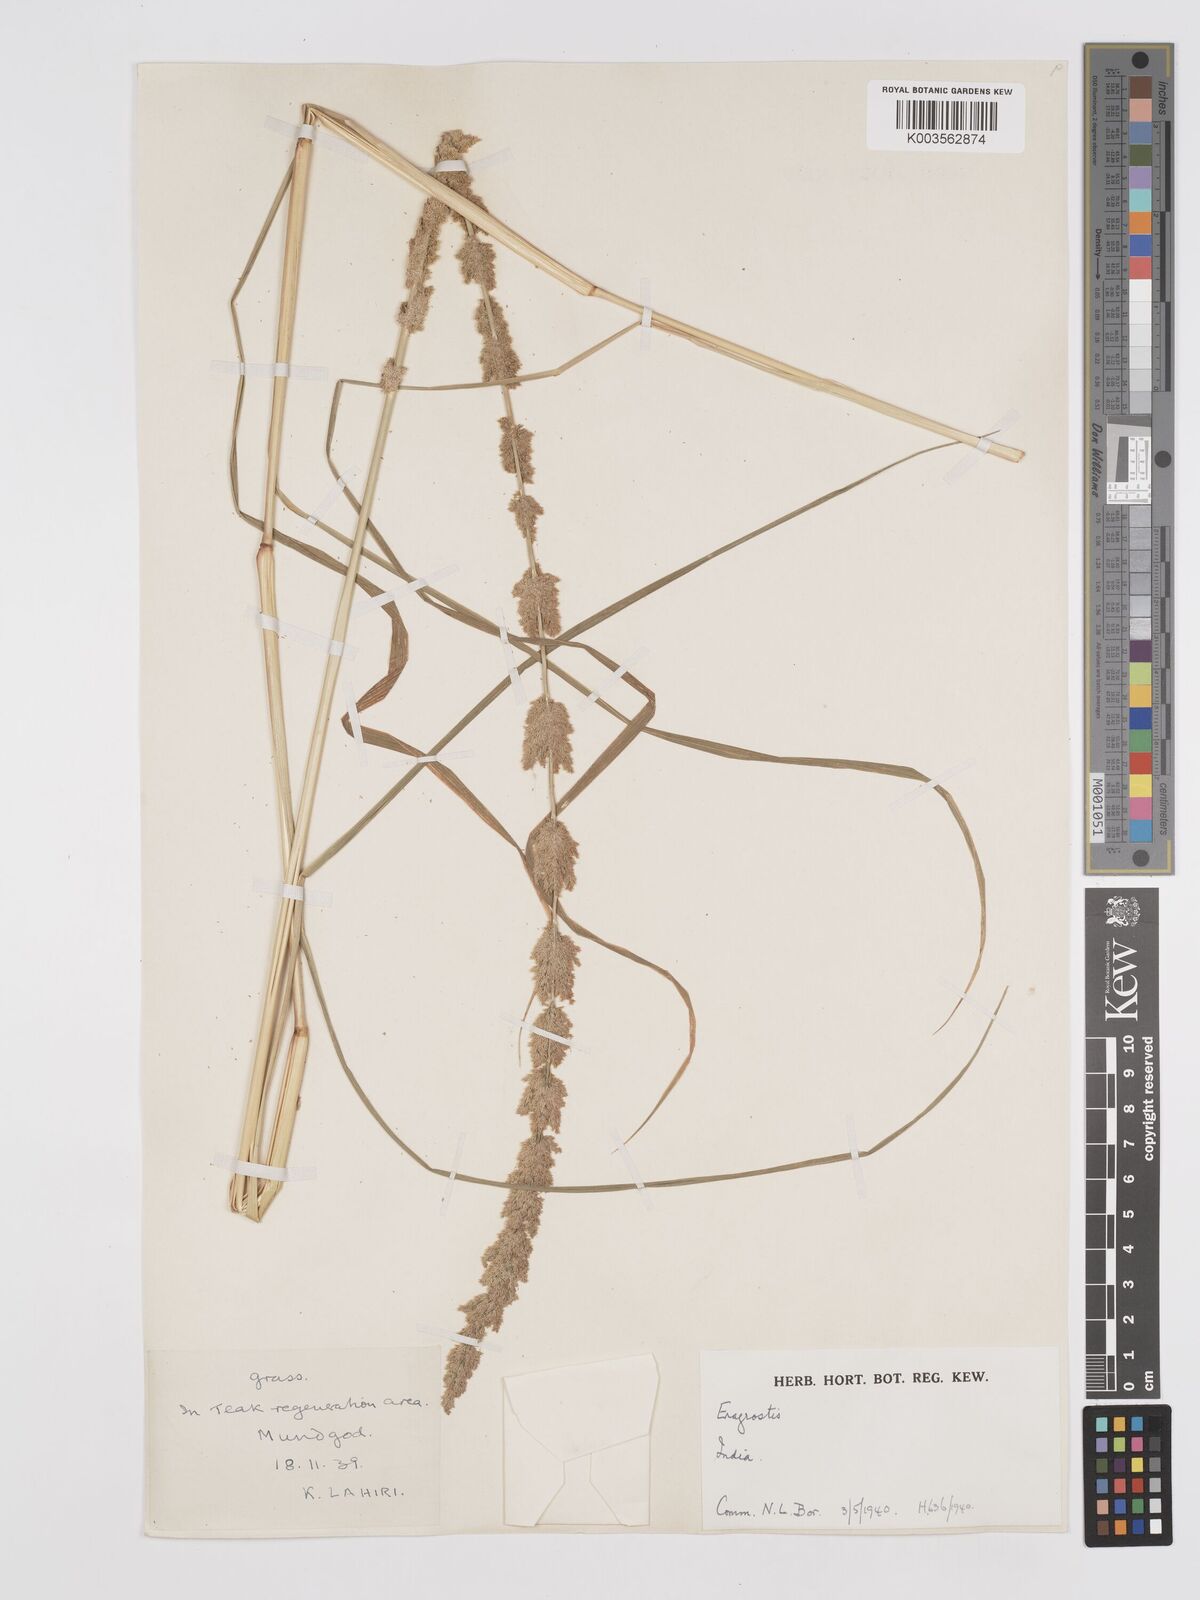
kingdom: Plantae
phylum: Tracheophyta
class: Liliopsida
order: Poales
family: Poaceae
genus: Eragrostis
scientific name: Eragrostis japonica
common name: Pond lovegrass
